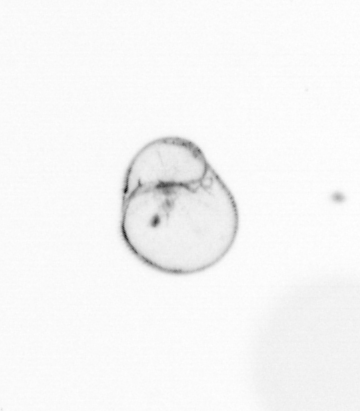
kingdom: Chromista
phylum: Myzozoa
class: Dinophyceae
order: Noctilucales
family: Noctilucaceae
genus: Noctiluca
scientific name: Noctiluca scintillans
